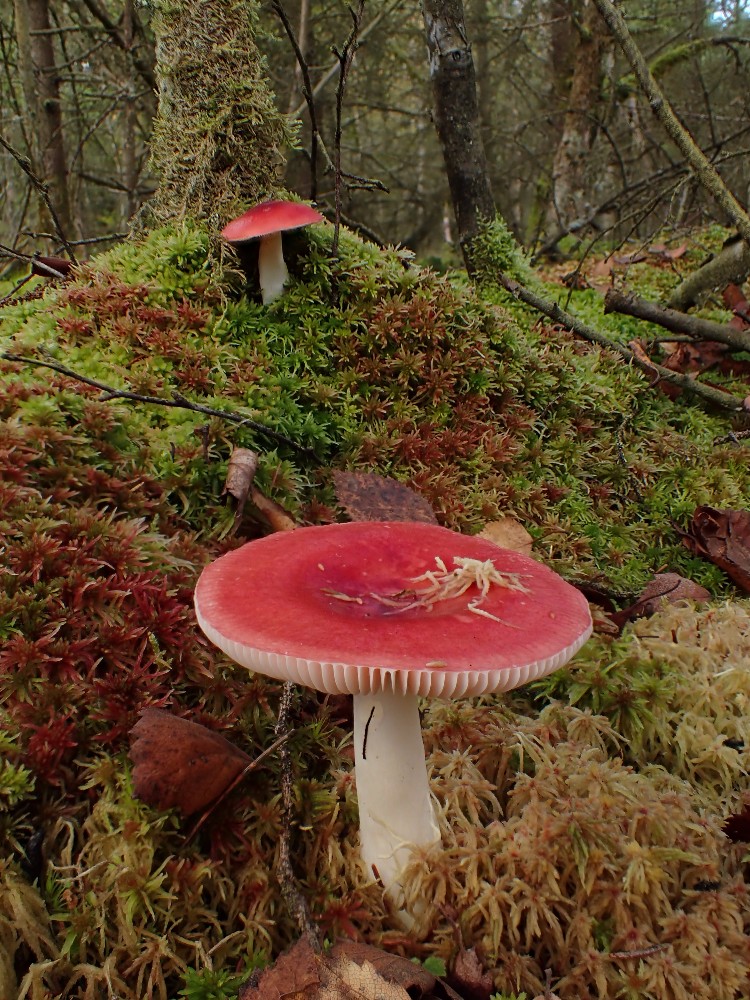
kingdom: Fungi
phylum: Basidiomycota
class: Agaricomycetes
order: Russulales
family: Russulaceae
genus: Russula
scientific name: Russula paludosa
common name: prægtig skørhat
